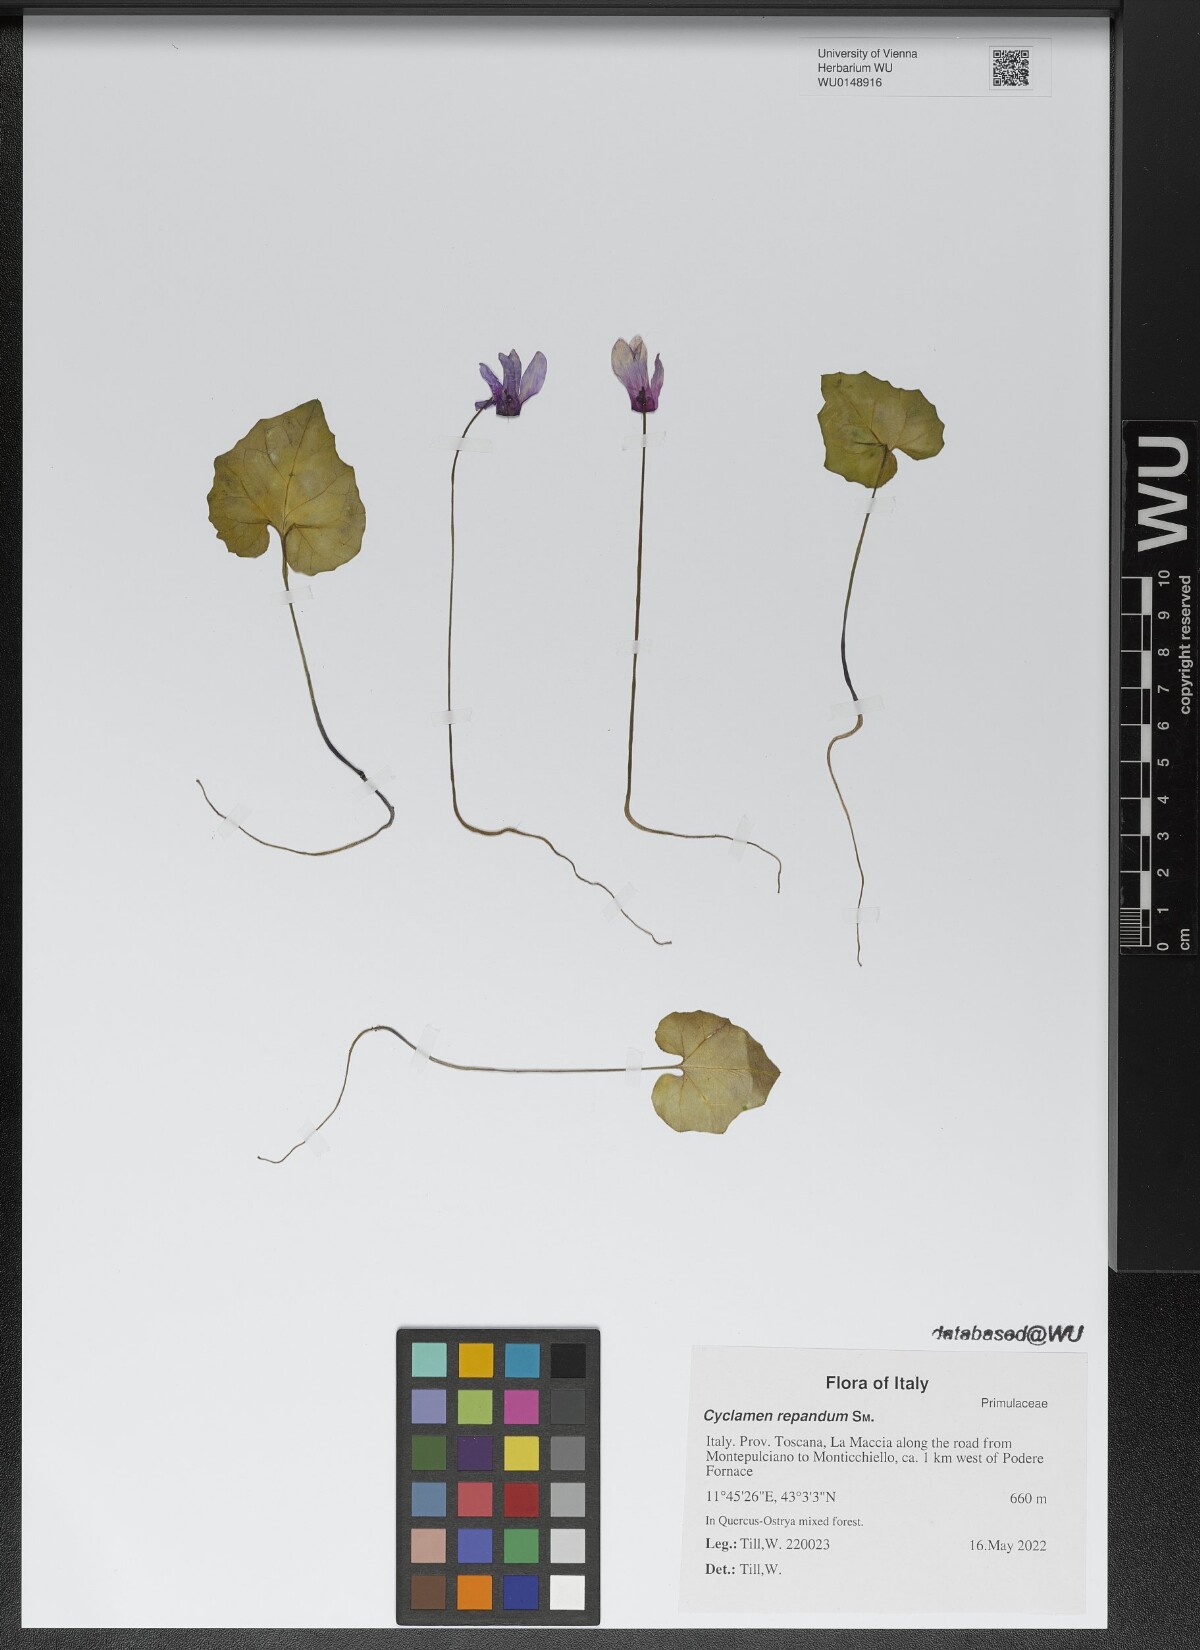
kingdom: Plantae
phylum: Tracheophyta
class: Magnoliopsida
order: Ericales
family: Primulaceae
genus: Cyclamen
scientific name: Cyclamen repandum
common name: Spring sowbread
